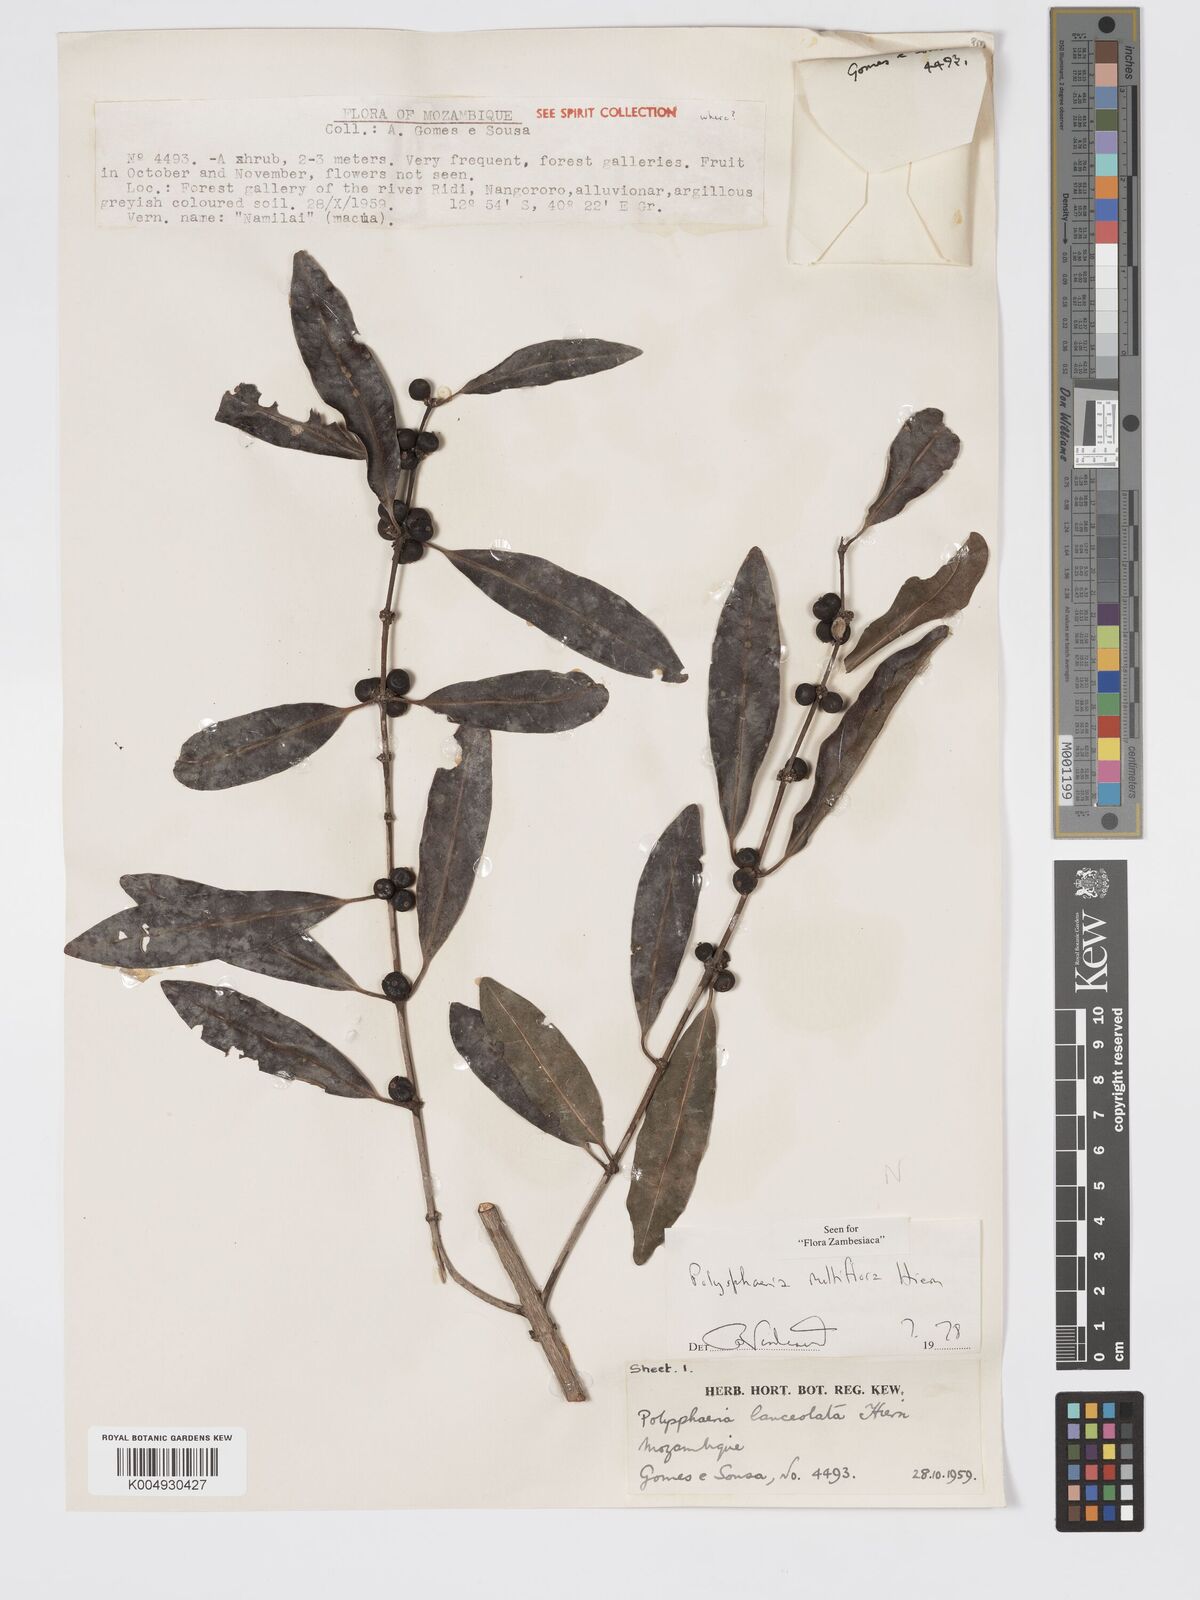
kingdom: Plantae
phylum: Tracheophyta
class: Magnoliopsida
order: Gentianales
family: Rubiaceae
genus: Polysphaeria
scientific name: Polysphaeria multiflora
